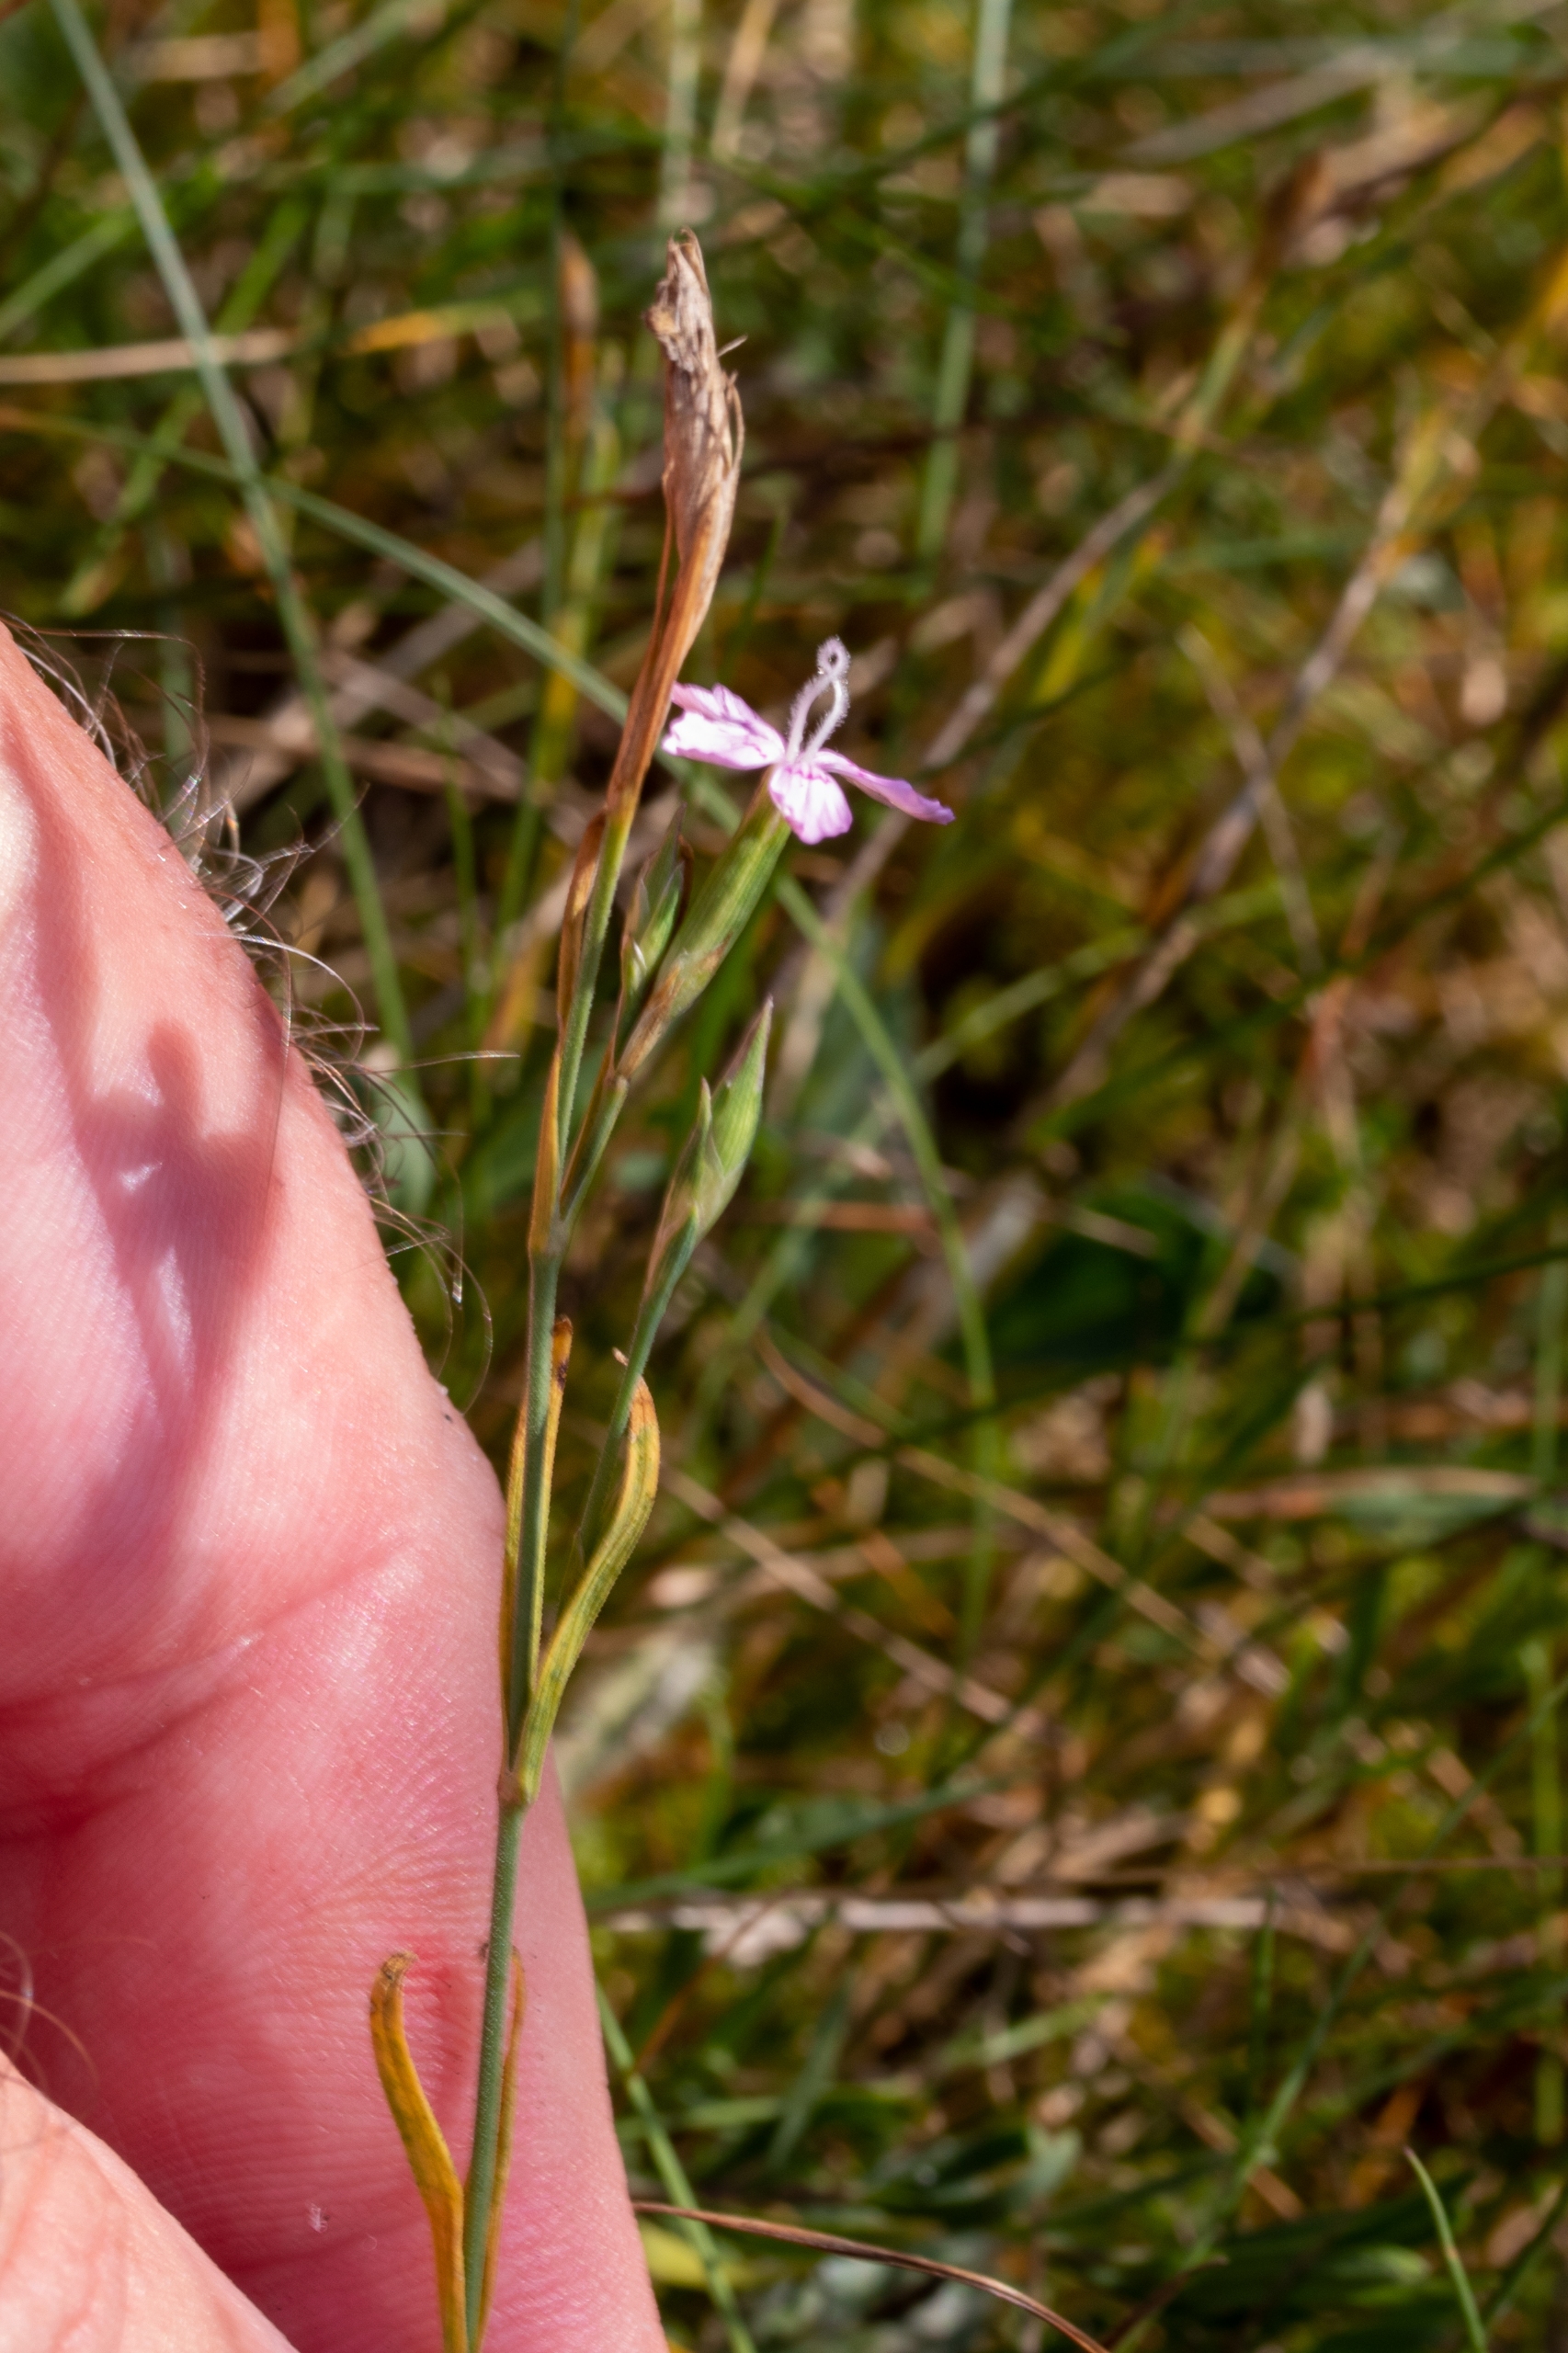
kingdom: Plantae
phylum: Tracheophyta
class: Magnoliopsida
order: Caryophyllales
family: Caryophyllaceae
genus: Dianthus
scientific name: Dianthus deltoides
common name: Bakke-nellike
